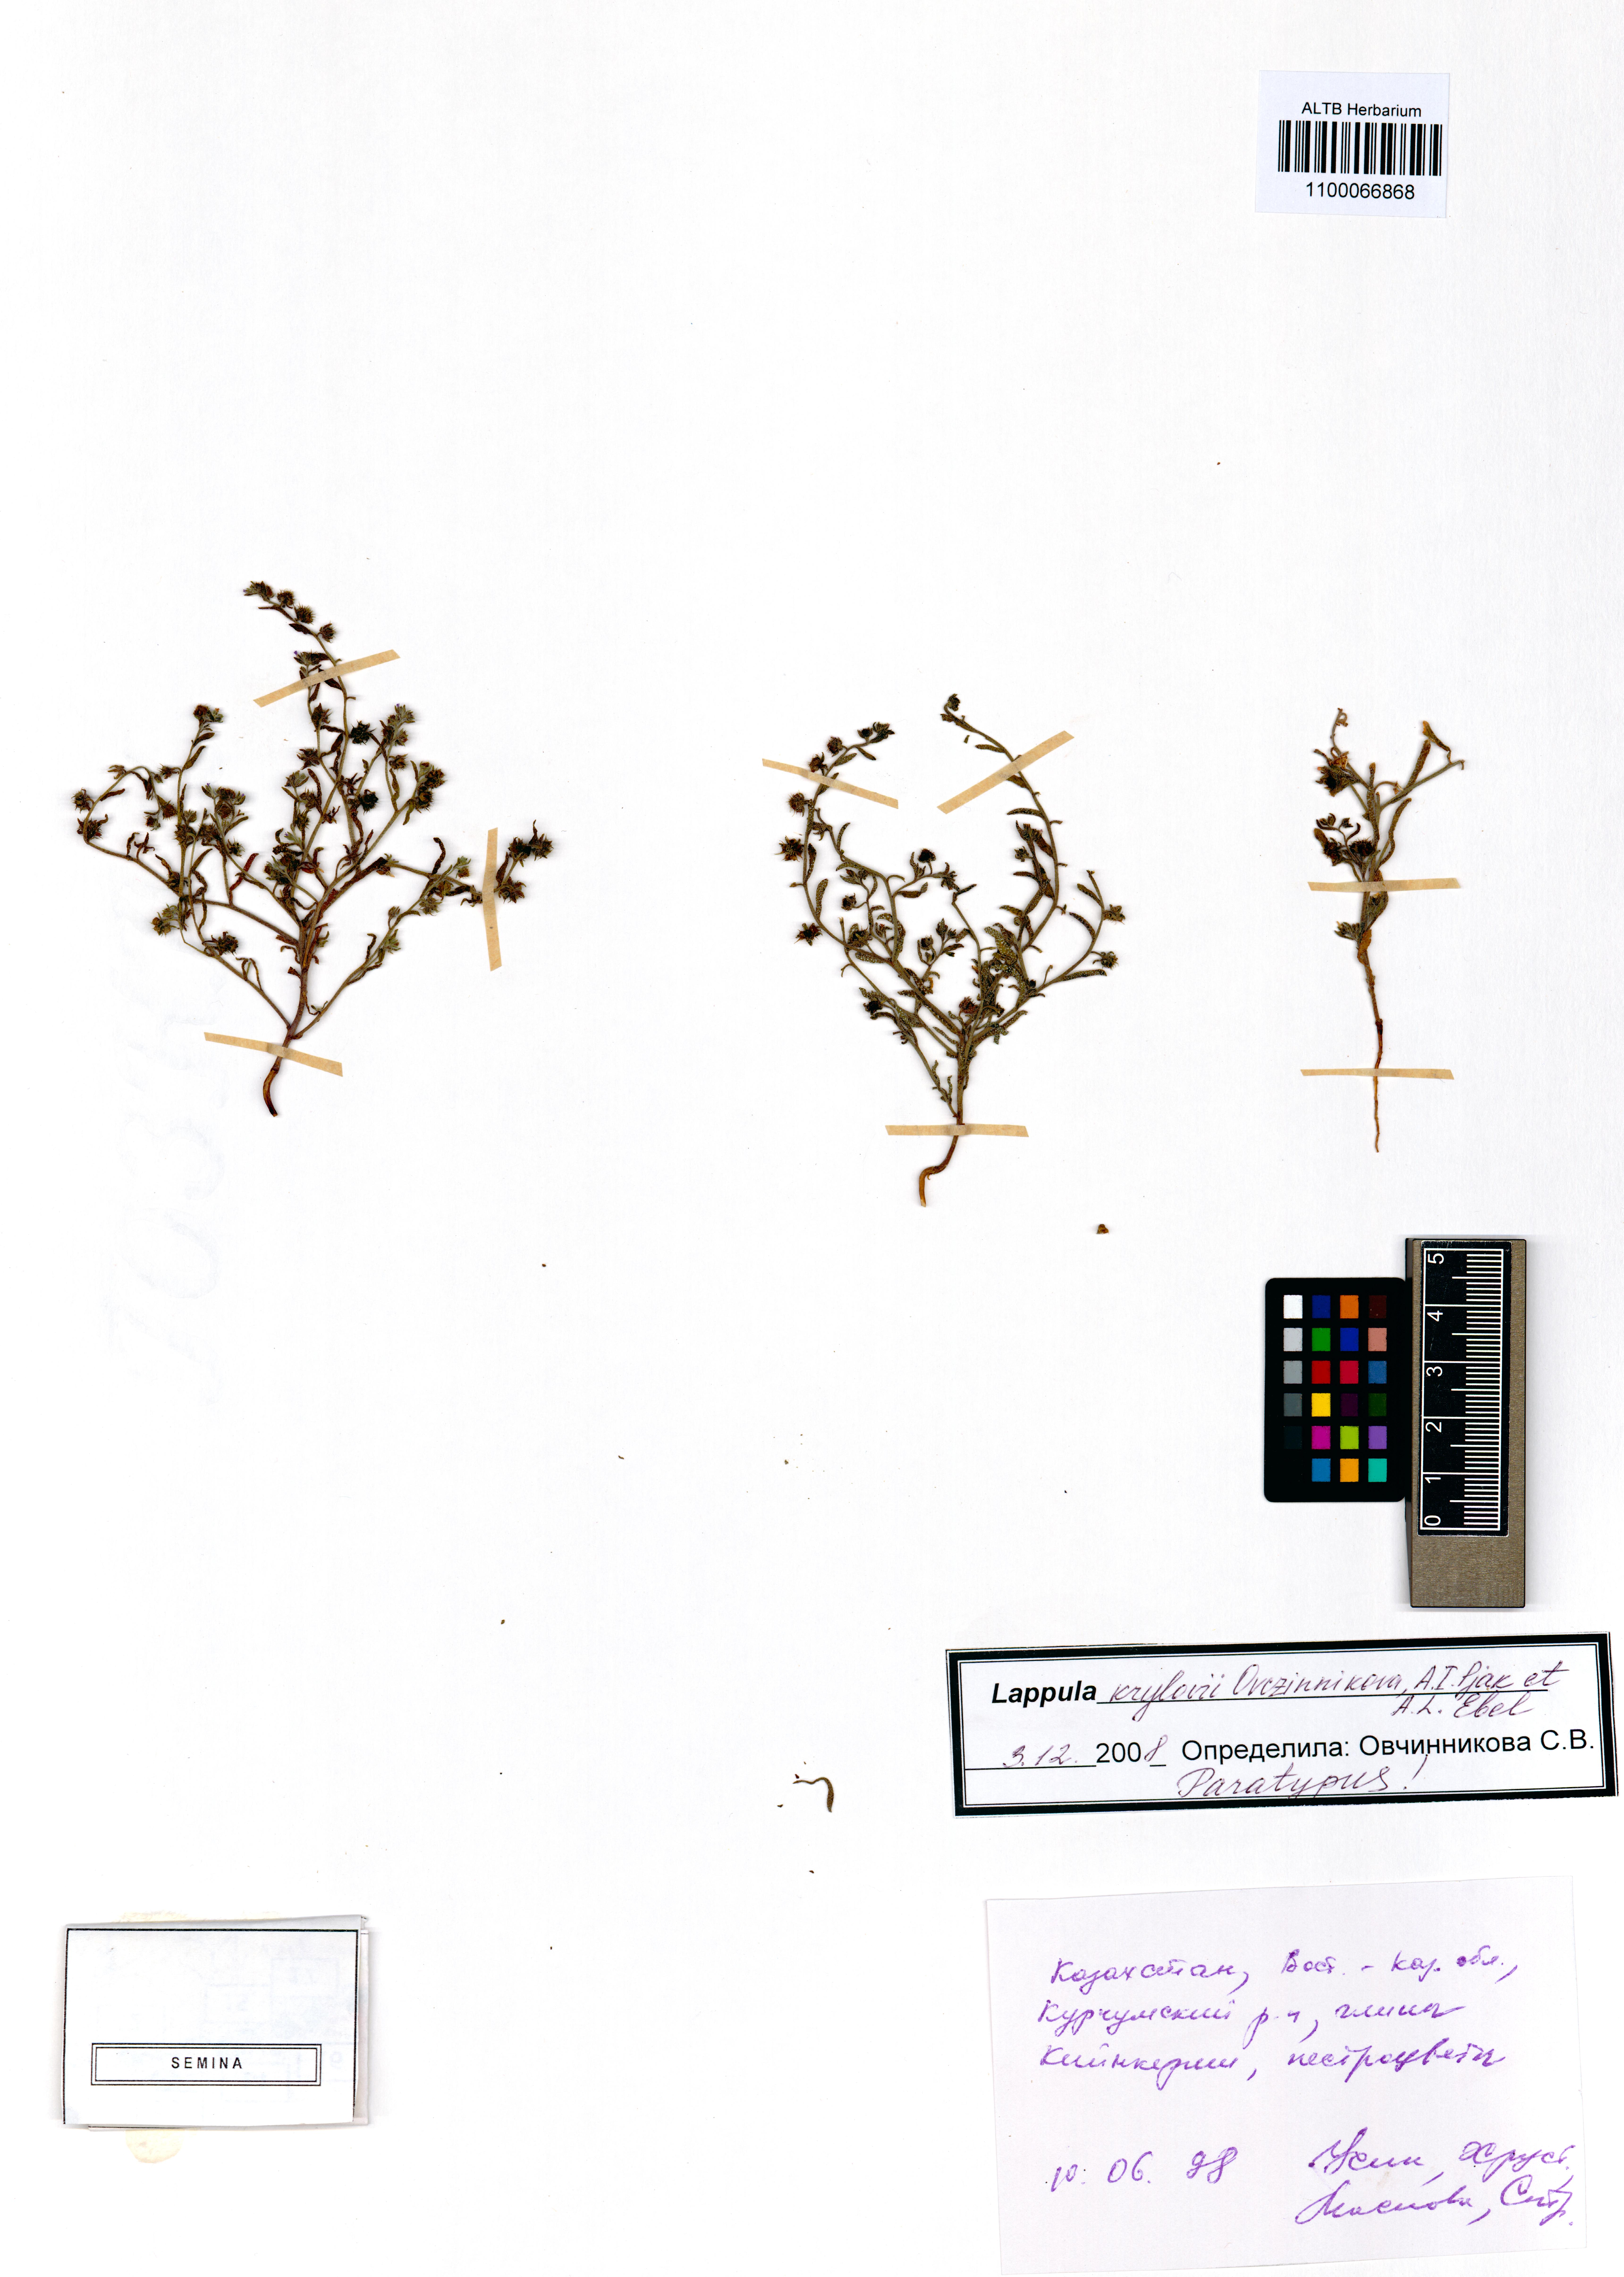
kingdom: Plantae
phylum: Tracheophyta
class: Magnoliopsida
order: Boraginales
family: Boraginaceae
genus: Lappula
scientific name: Lappula krylovii
